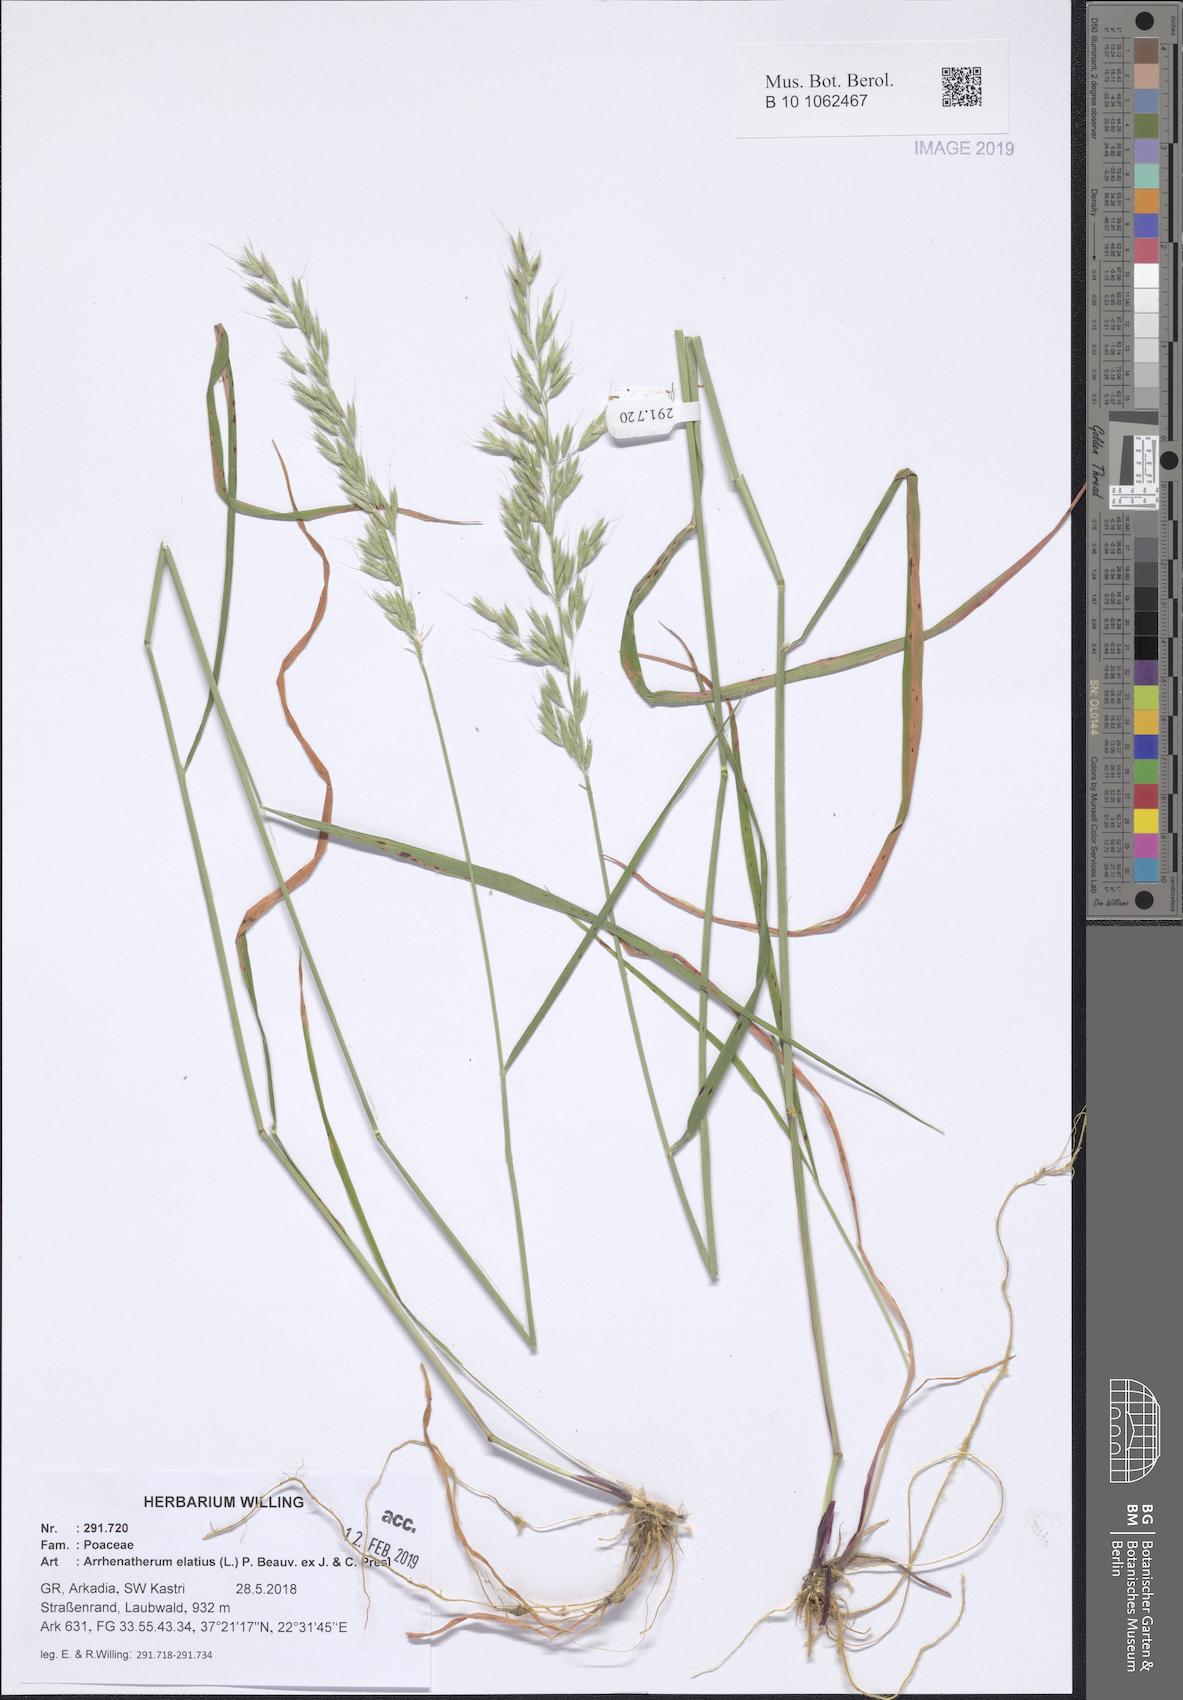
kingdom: Plantae
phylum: Tracheophyta
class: Liliopsida
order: Poales
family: Poaceae
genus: Arrhenatherum
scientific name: Arrhenatherum elatius
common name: Tall oatgrass
